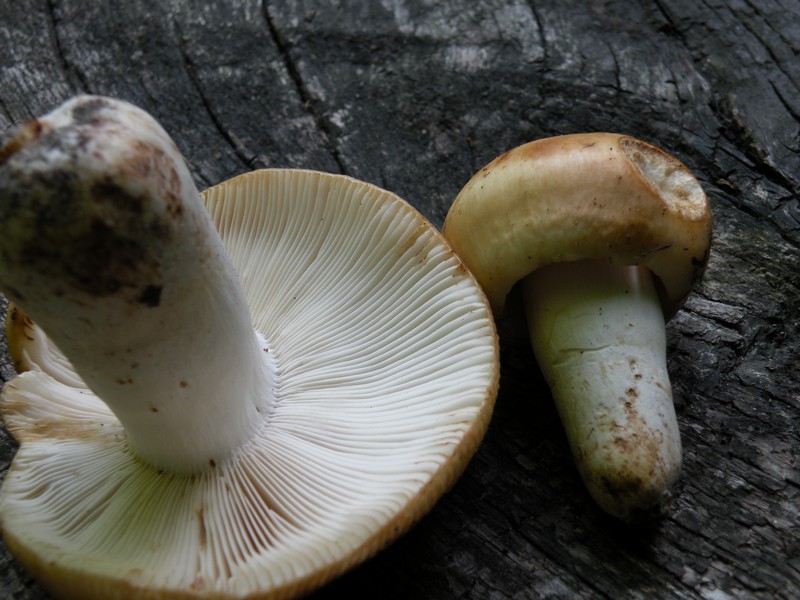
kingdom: Fungi
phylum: Basidiomycota
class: Agaricomycetes
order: Russulales
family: Russulaceae
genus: Russula
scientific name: Russula grata
